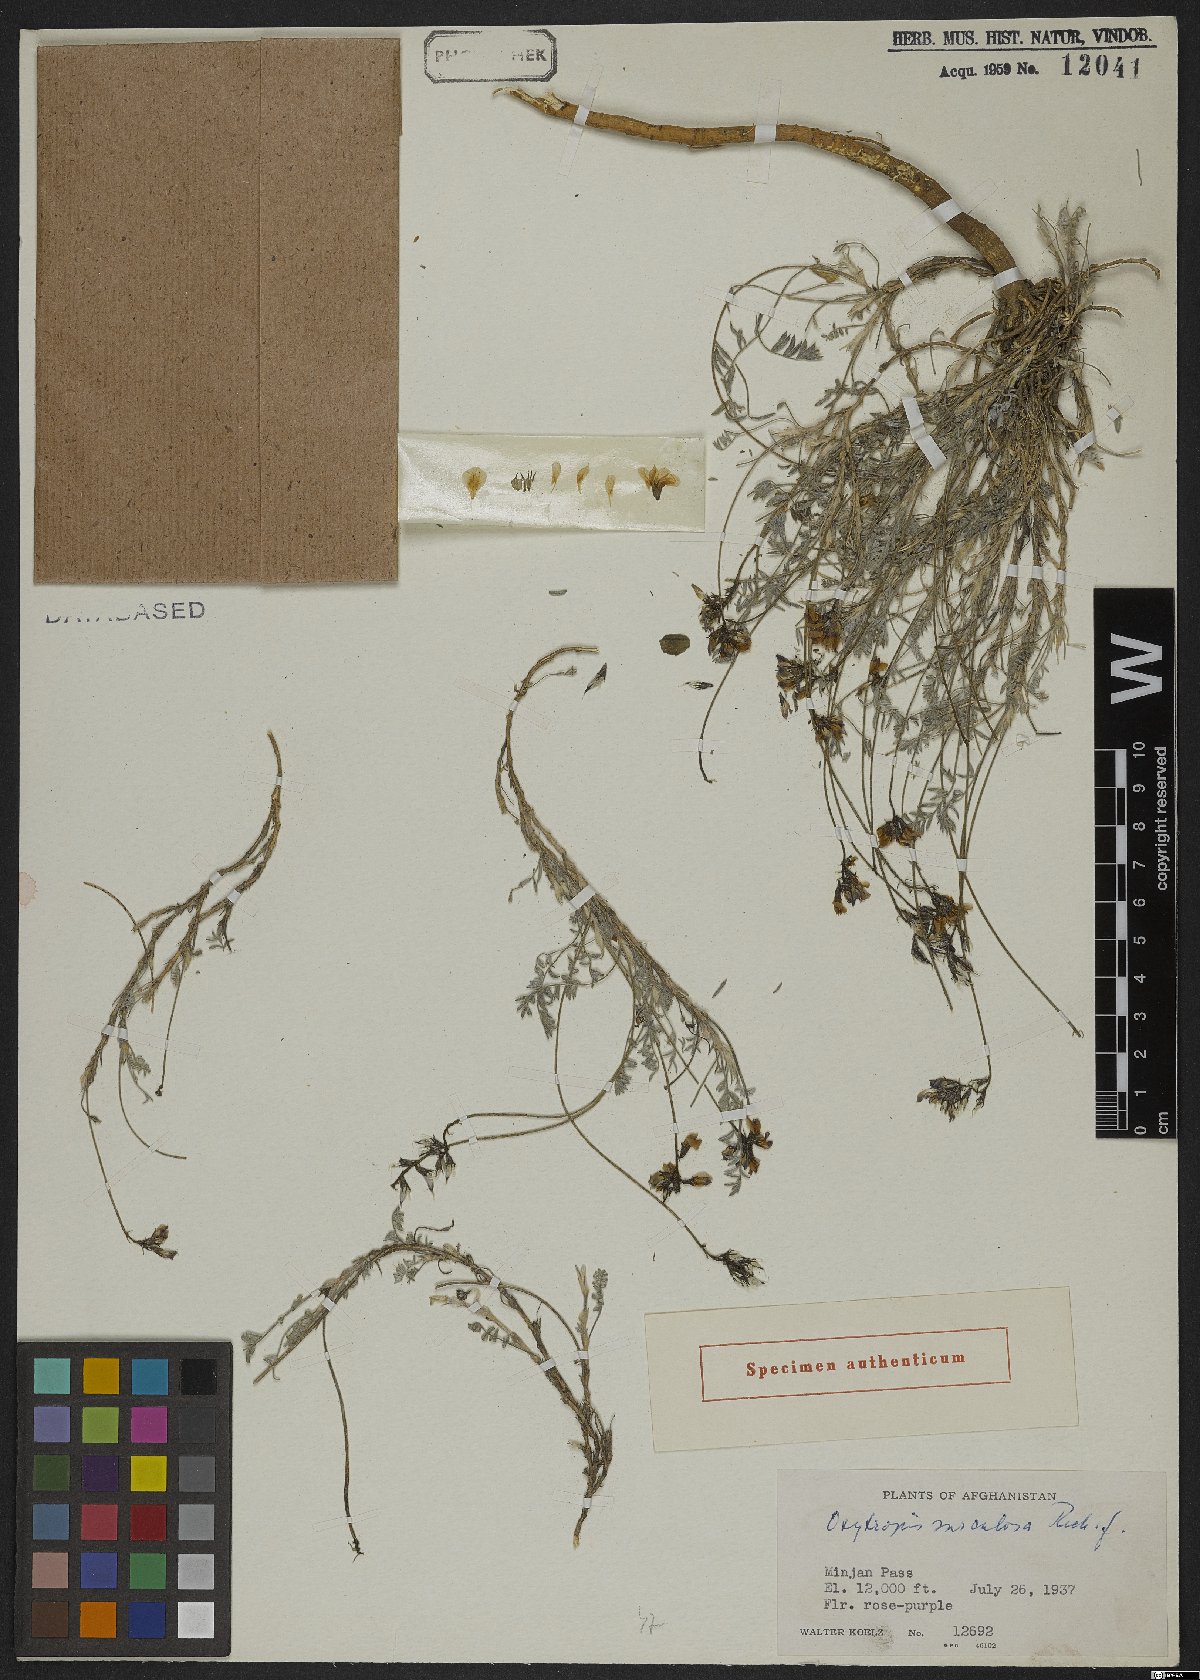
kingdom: Plantae
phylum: Tracheophyta
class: Magnoliopsida
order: Fabales
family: Fabaceae
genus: Oxytropis
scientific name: Oxytropis
